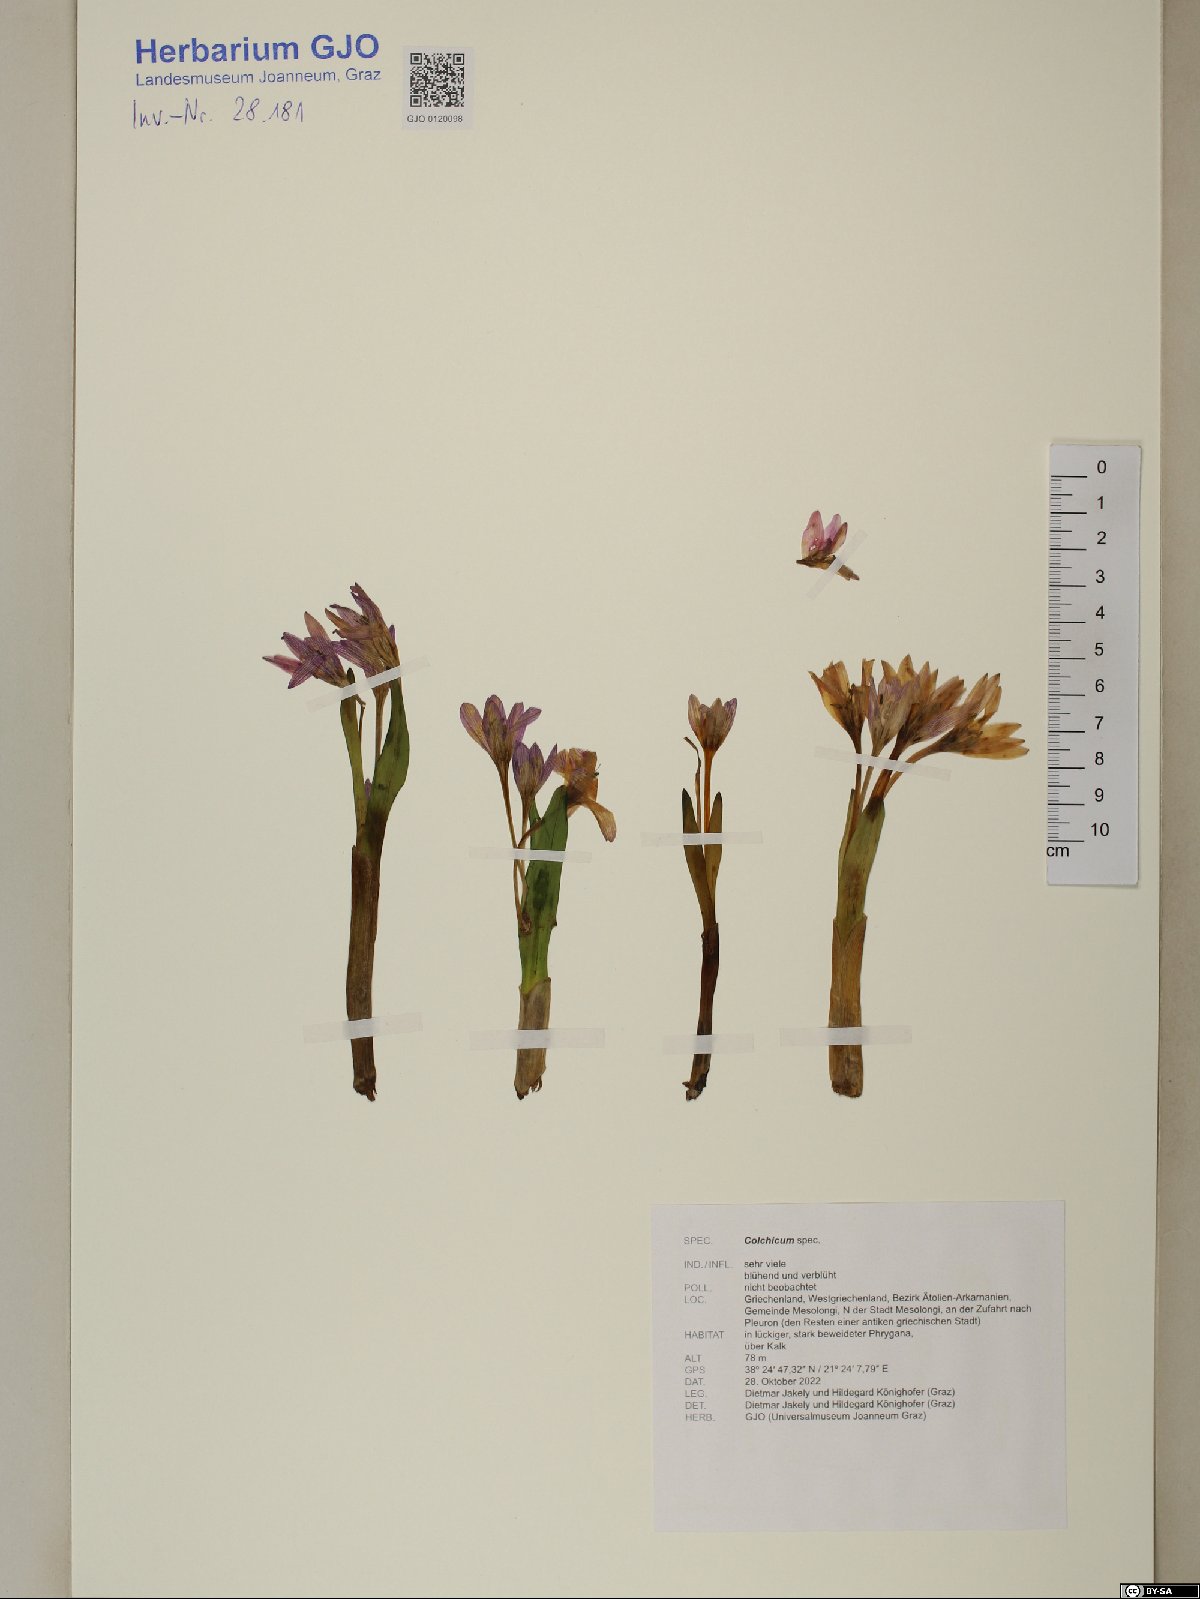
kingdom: Plantae
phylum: Tracheophyta
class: Liliopsida
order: Liliales
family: Colchicaceae
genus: Colchicum
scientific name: Colchicum
